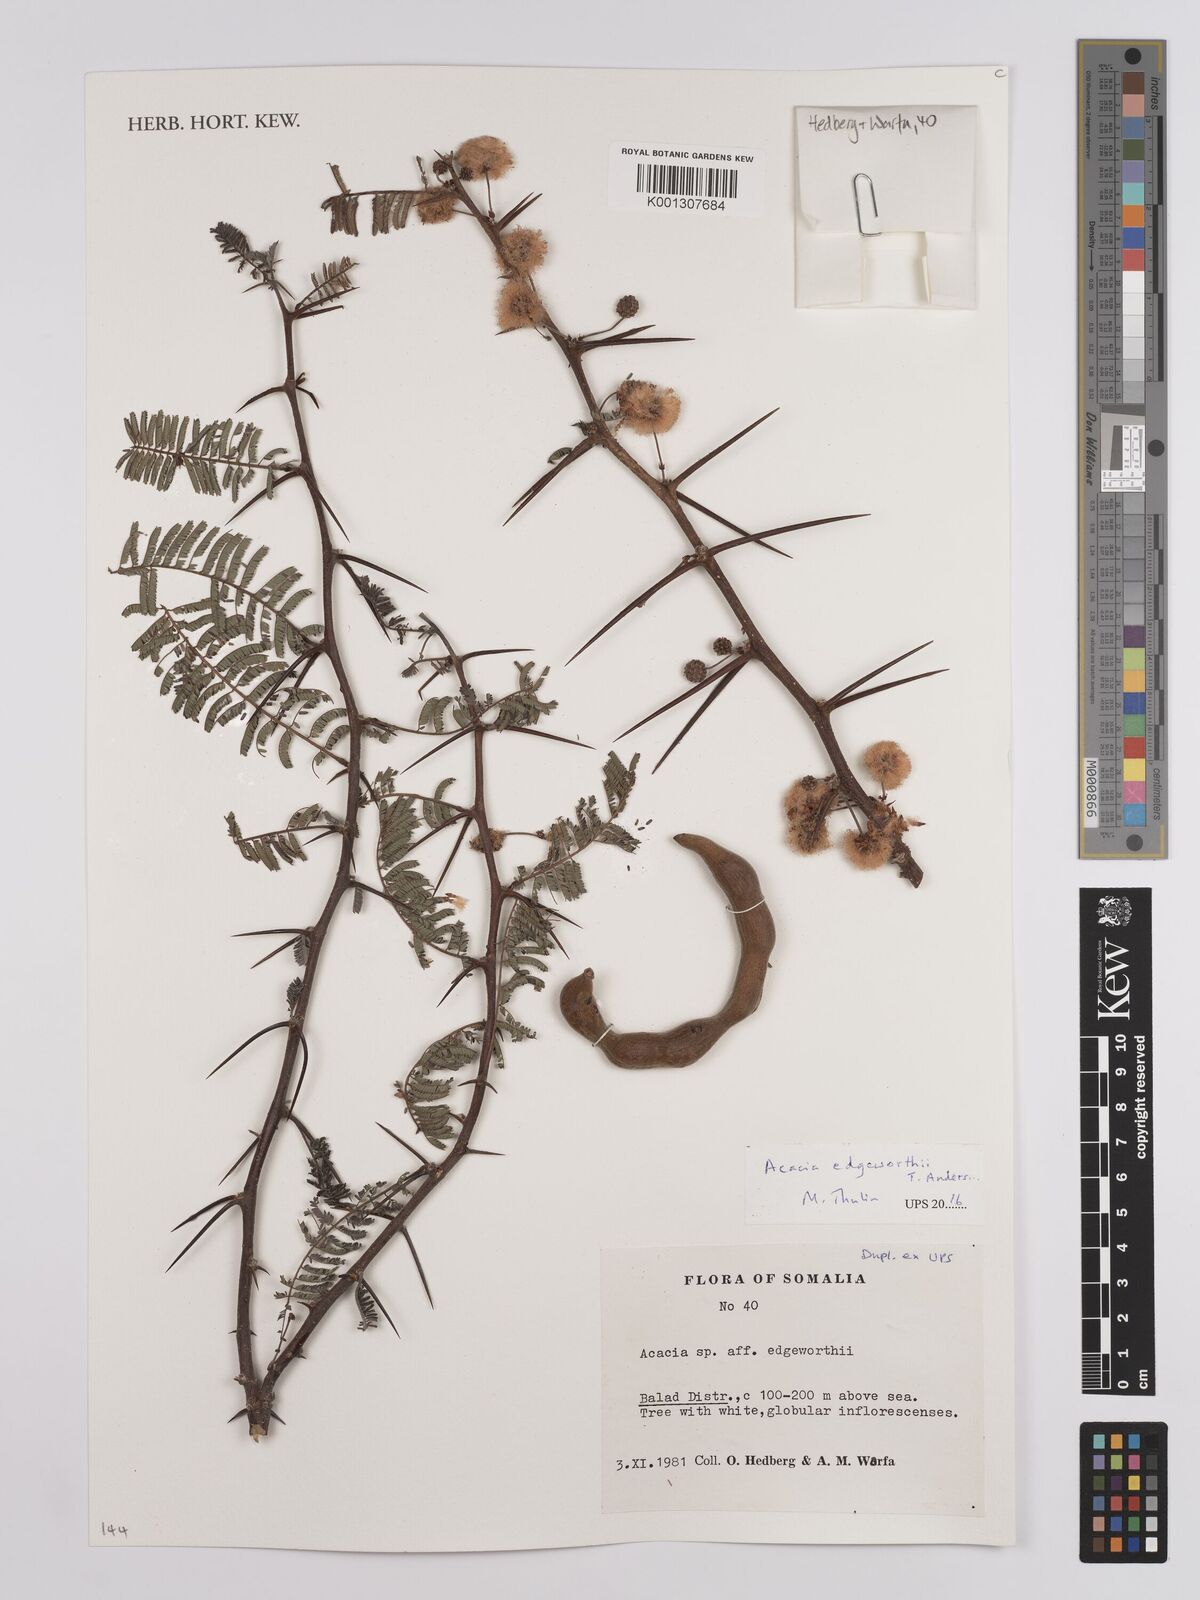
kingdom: Plantae
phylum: Tracheophyta
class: Magnoliopsida
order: Fabales
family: Fabaceae
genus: Vachellia
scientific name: Vachellia edgeworthii
